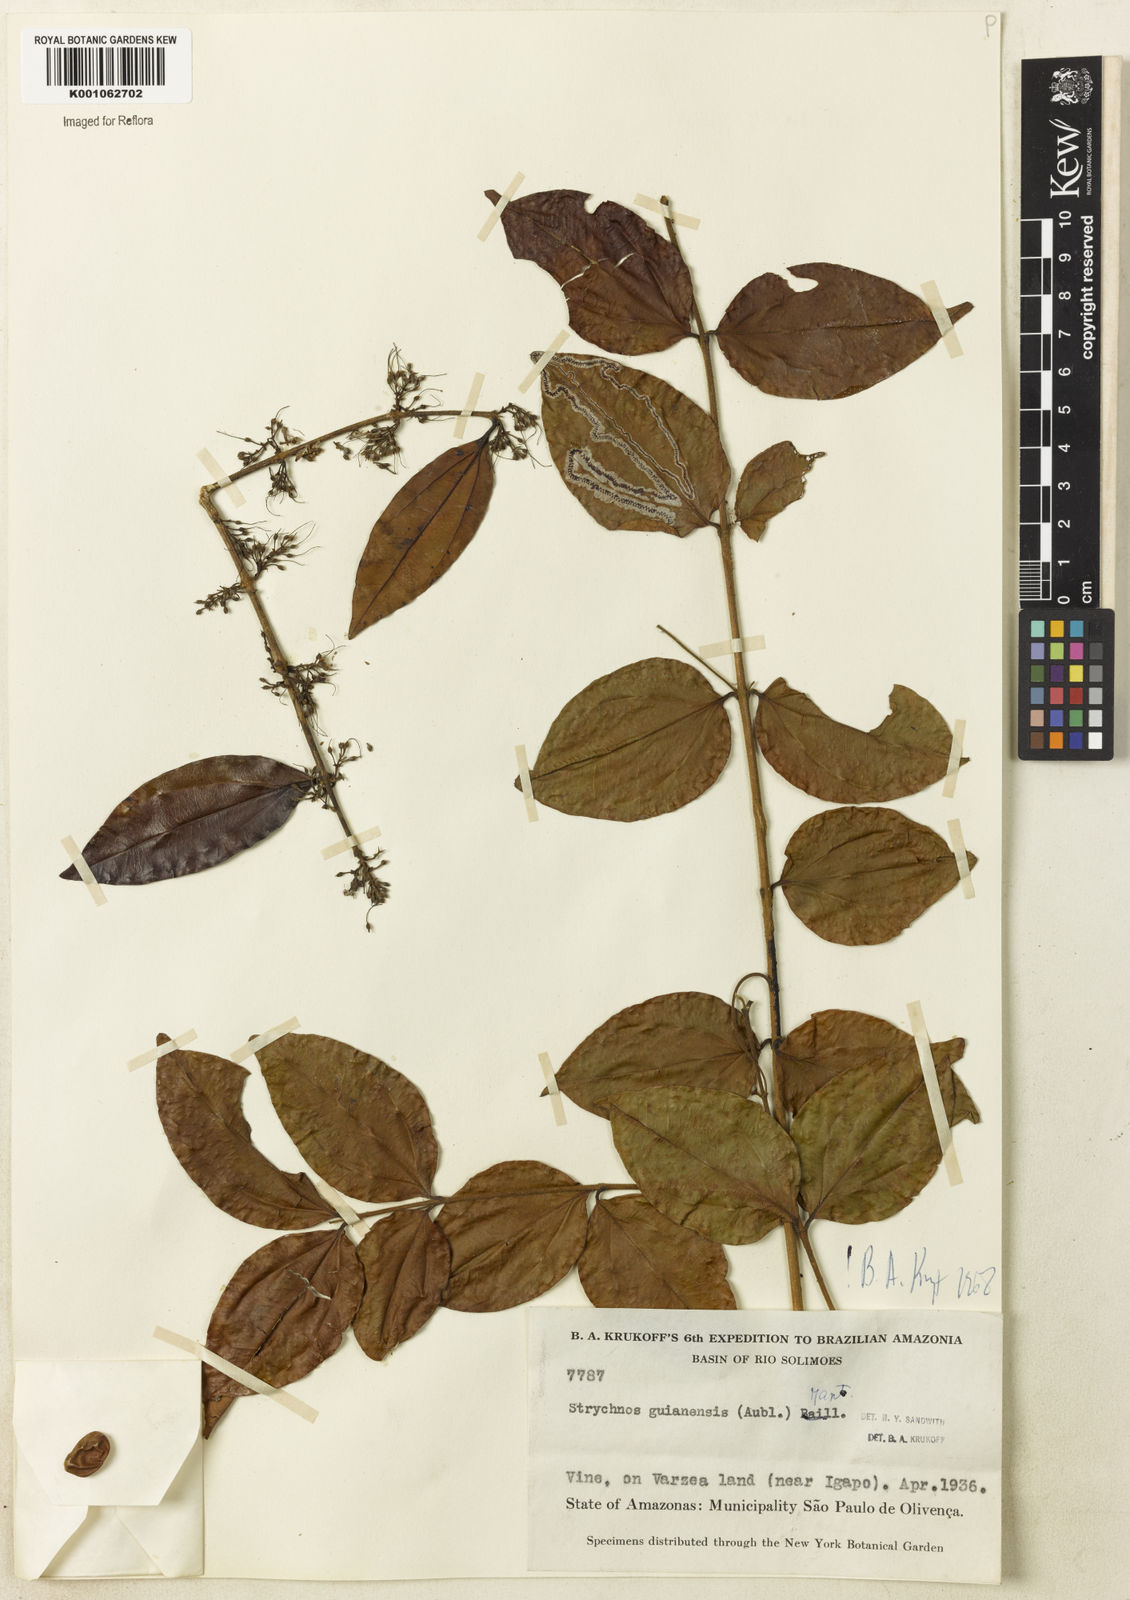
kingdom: Plantae
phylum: Tracheophyta
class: Magnoliopsida
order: Gentianales
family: Loganiaceae
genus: Strychnos
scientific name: Strychnos guianensis
